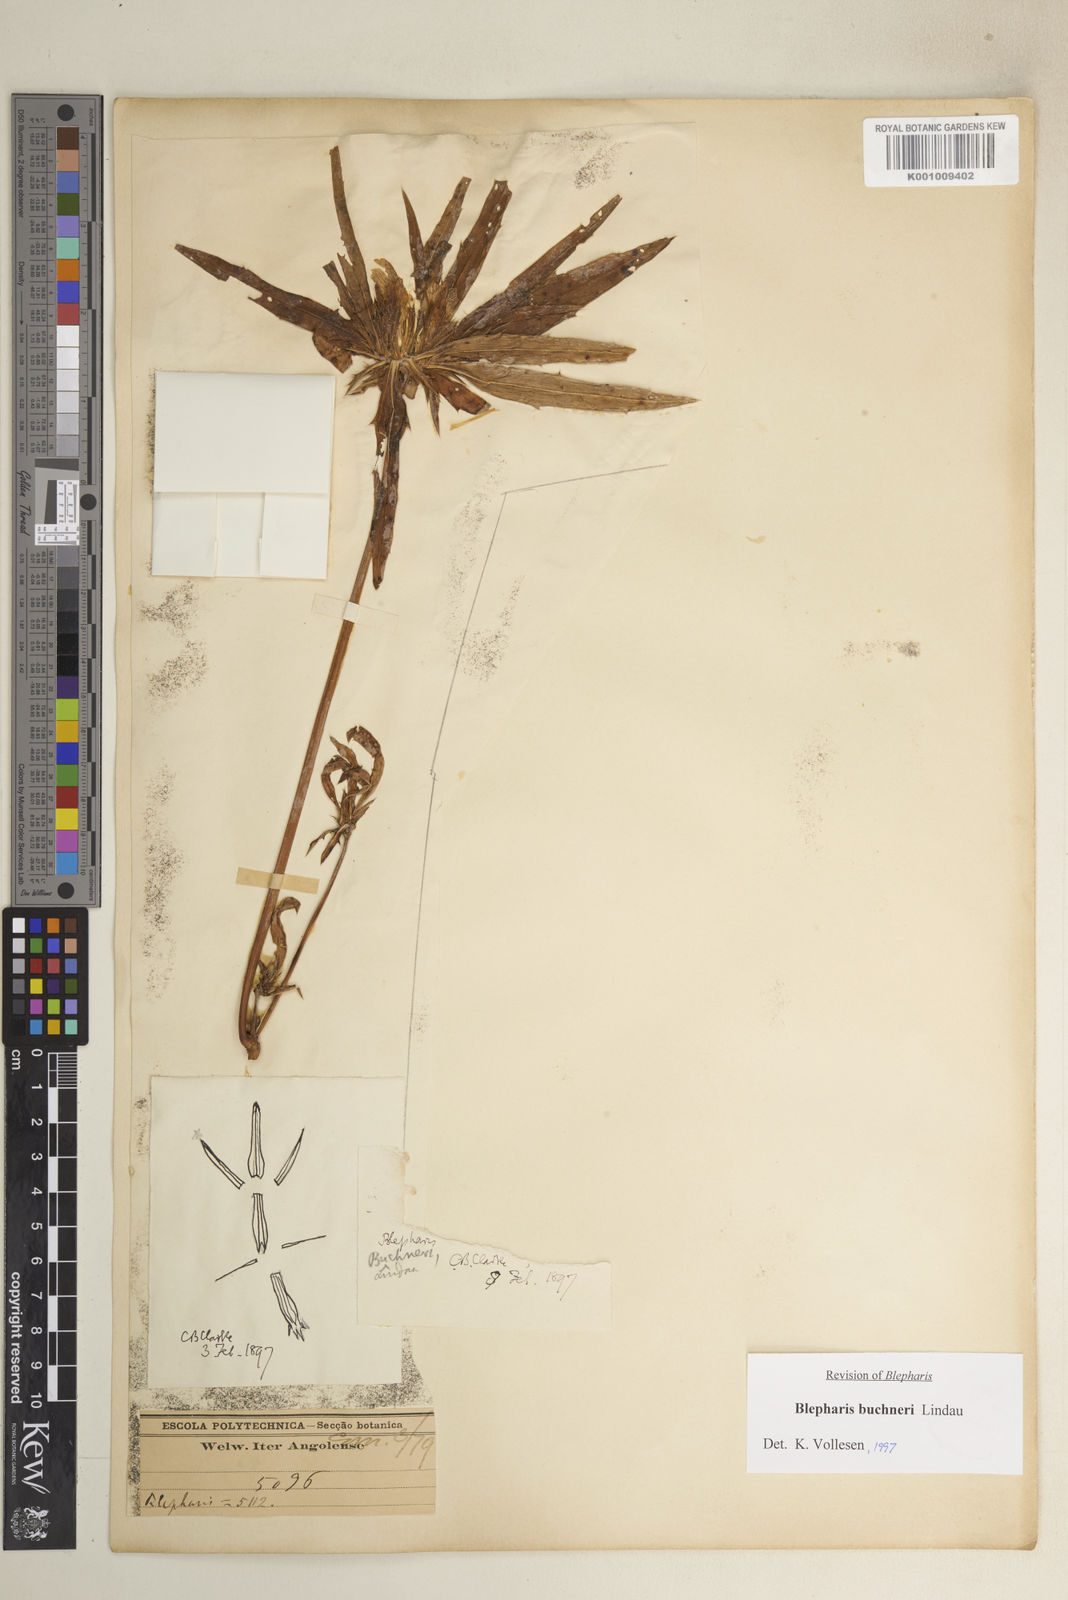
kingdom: Plantae
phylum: Tracheophyta
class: Magnoliopsida
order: Lamiales
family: Acanthaceae
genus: Blepharis
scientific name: Blepharis buchneri
